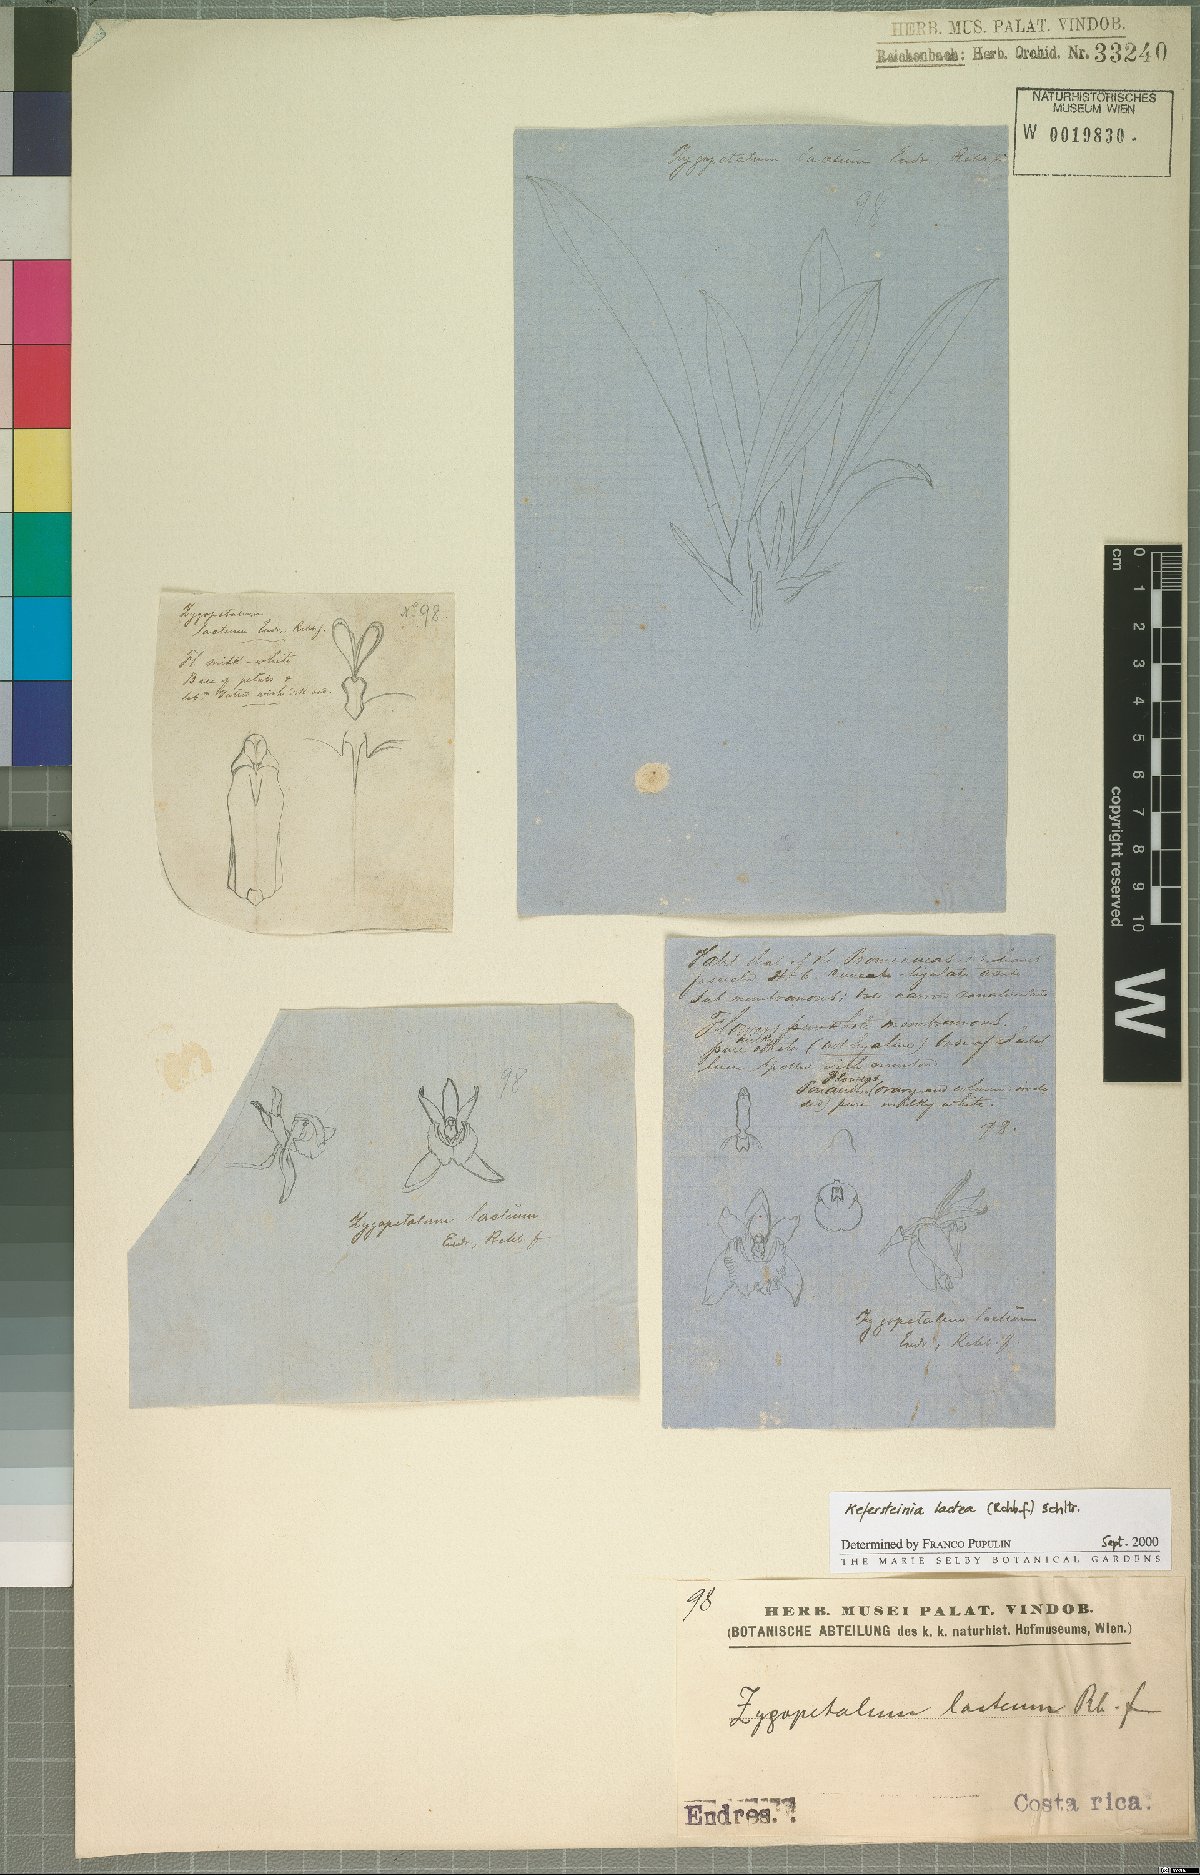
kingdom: Plantae
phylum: Tracheophyta
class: Liliopsida
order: Asparagales
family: Orchidaceae
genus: Kefersteinia
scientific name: Kefersteinia lactea
